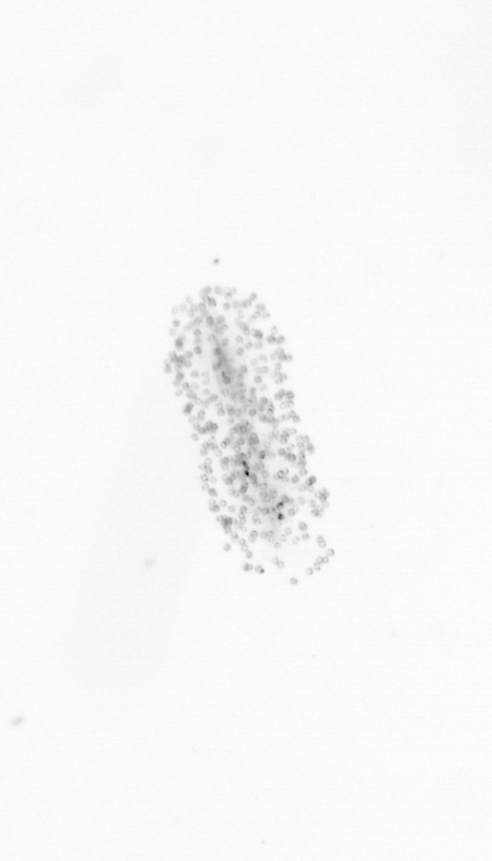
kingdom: Chromista
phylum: Ochrophyta
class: Bacillariophyceae
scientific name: Bacillariophyceae
